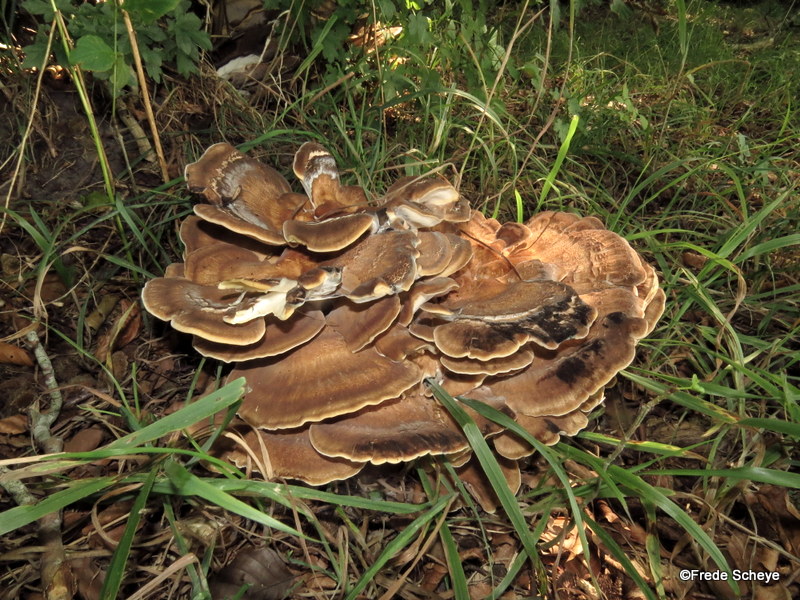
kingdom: Fungi
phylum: Basidiomycota
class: Agaricomycetes
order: Polyporales
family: Meripilaceae
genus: Meripilus
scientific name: Meripilus giganteus
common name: kæmpeporesvamp
